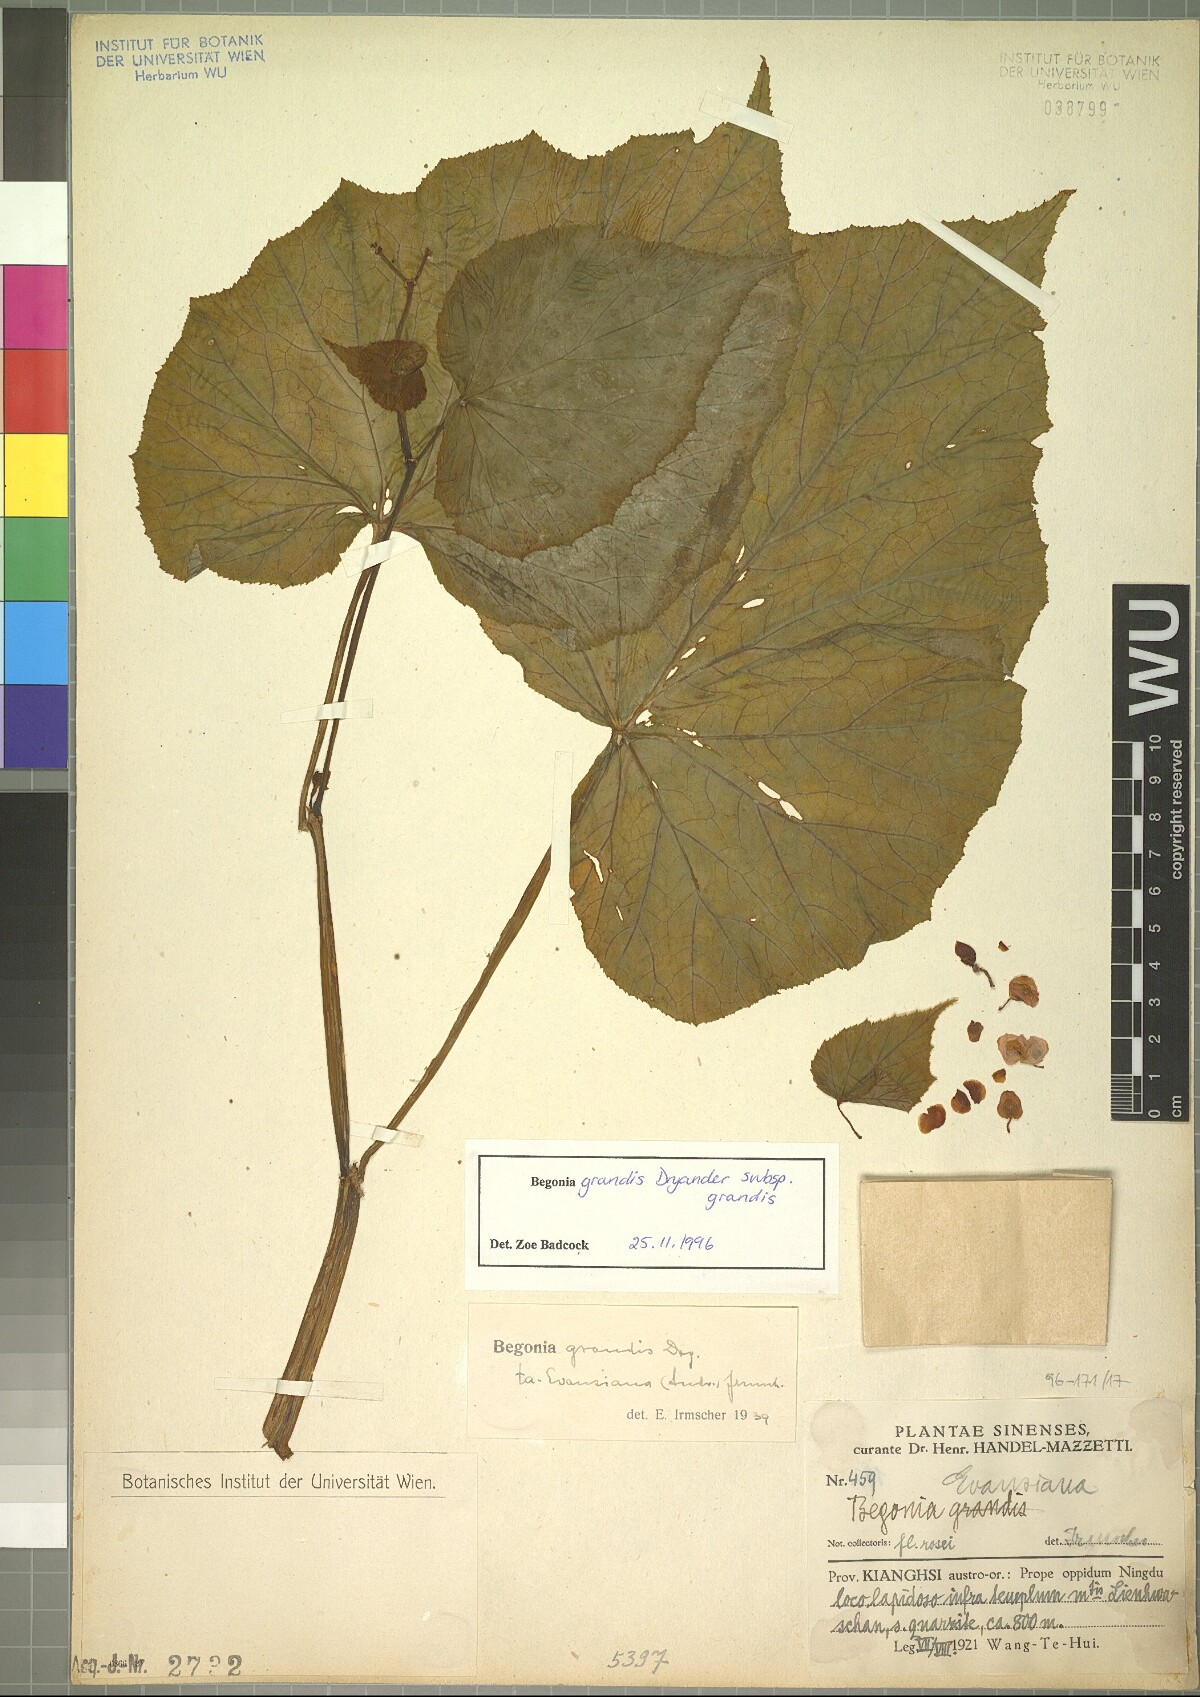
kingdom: Plantae
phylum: Tracheophyta
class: Magnoliopsida
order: Cucurbitales
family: Begoniaceae
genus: Begonia
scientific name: Begonia grandis
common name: Hardy begonia
